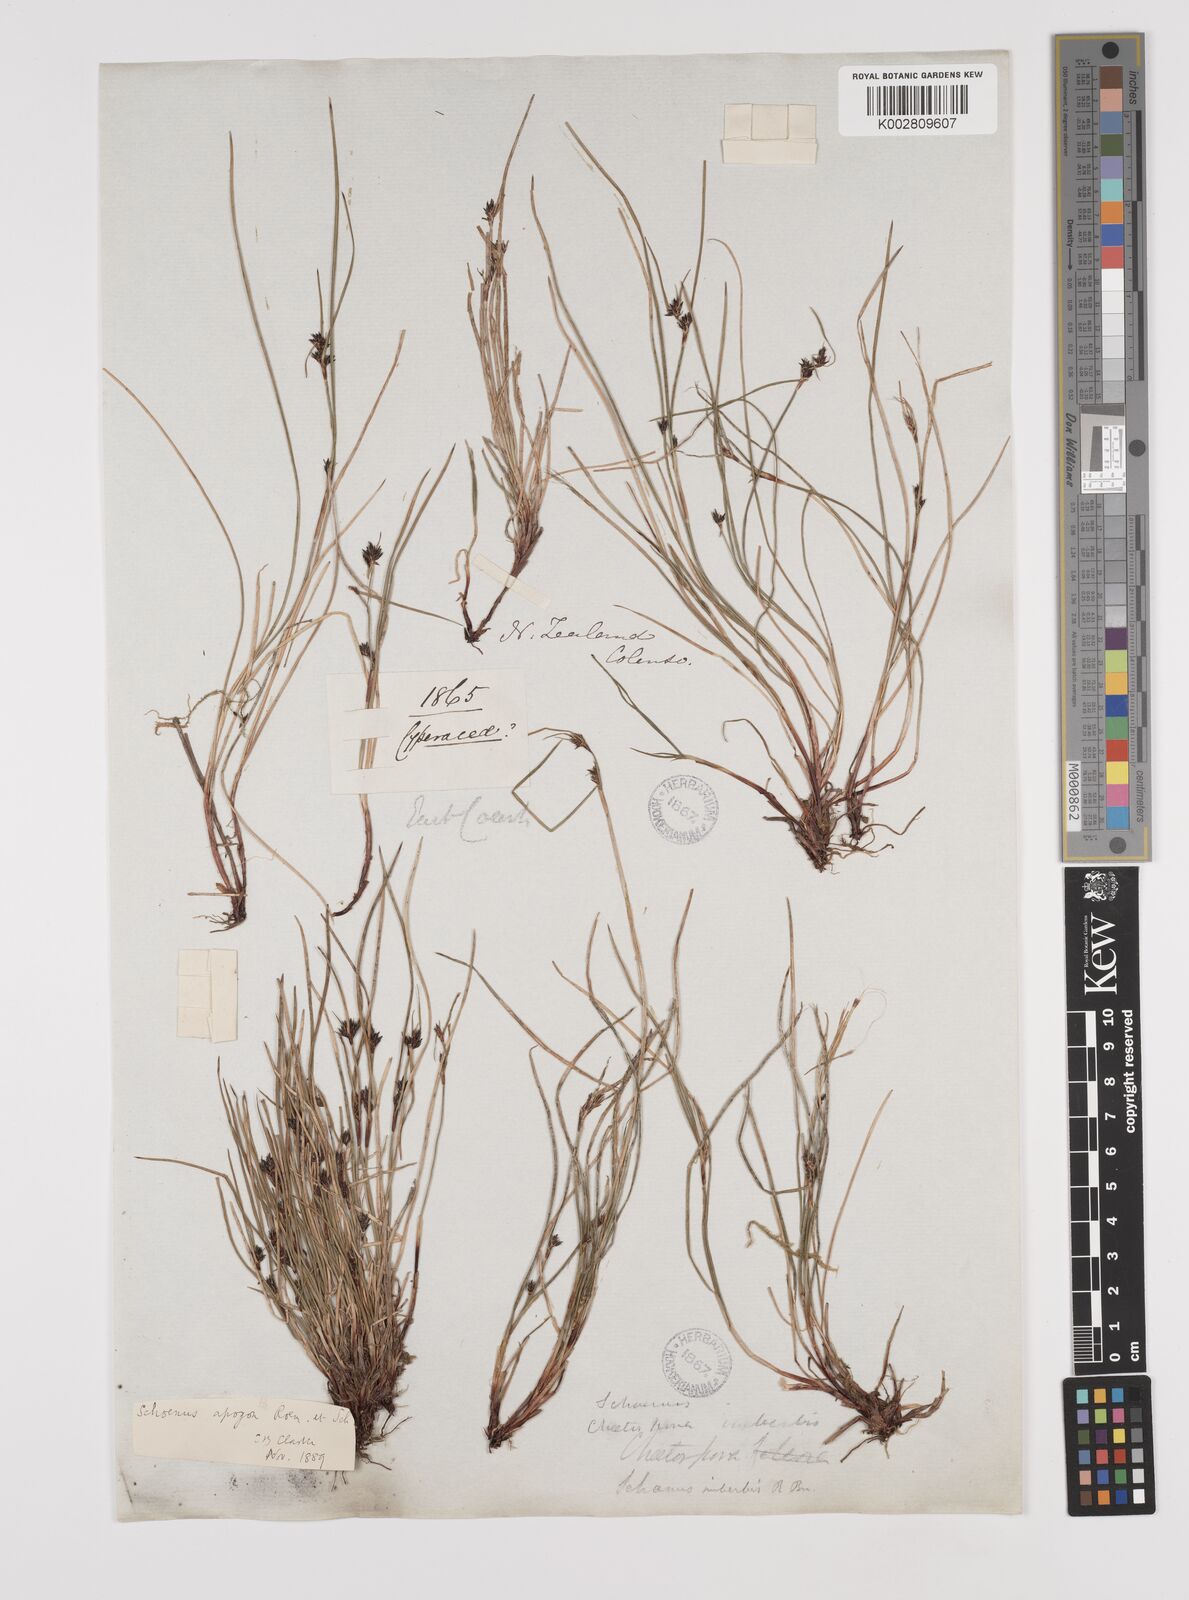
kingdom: Plantae
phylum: Tracheophyta
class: Liliopsida
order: Poales
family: Cyperaceae
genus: Schoenus
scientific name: Schoenus apogon
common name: Smooth bogrush
